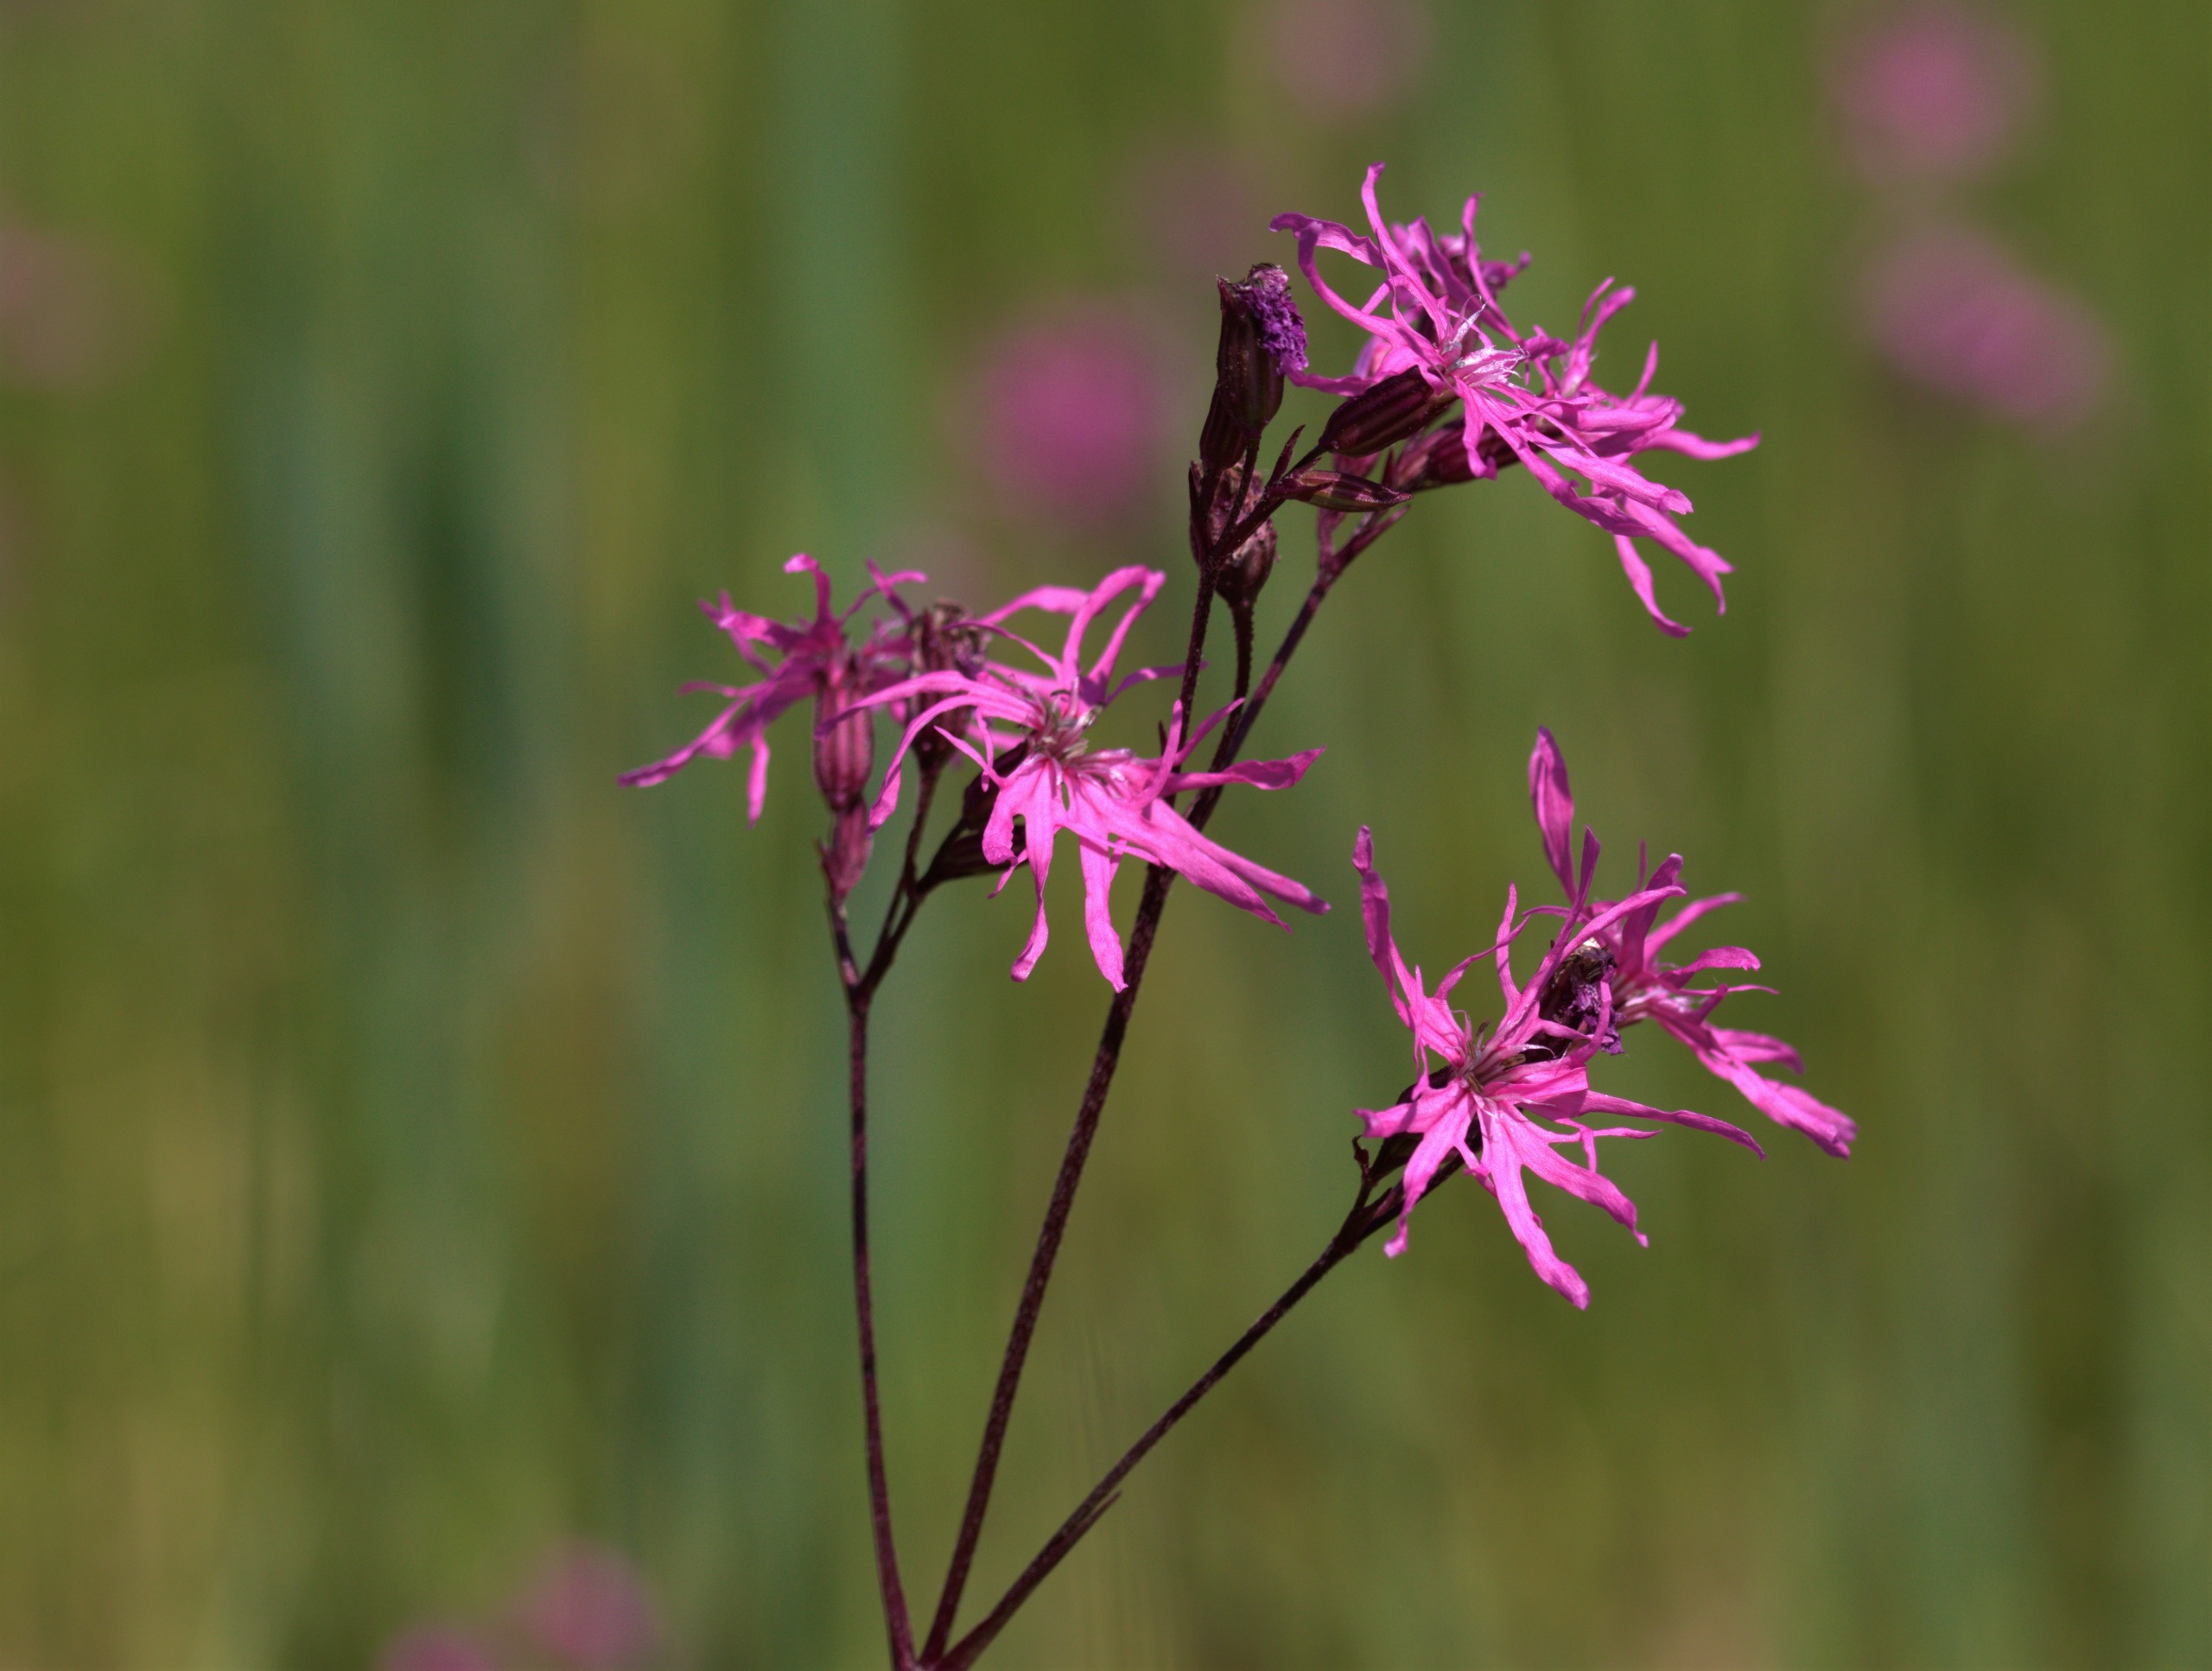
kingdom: Plantae
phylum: Tracheophyta
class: Magnoliopsida
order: Caryophyllales
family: Caryophyllaceae
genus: Silene
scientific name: Silene flos-cuculi
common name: Trævlekrone
